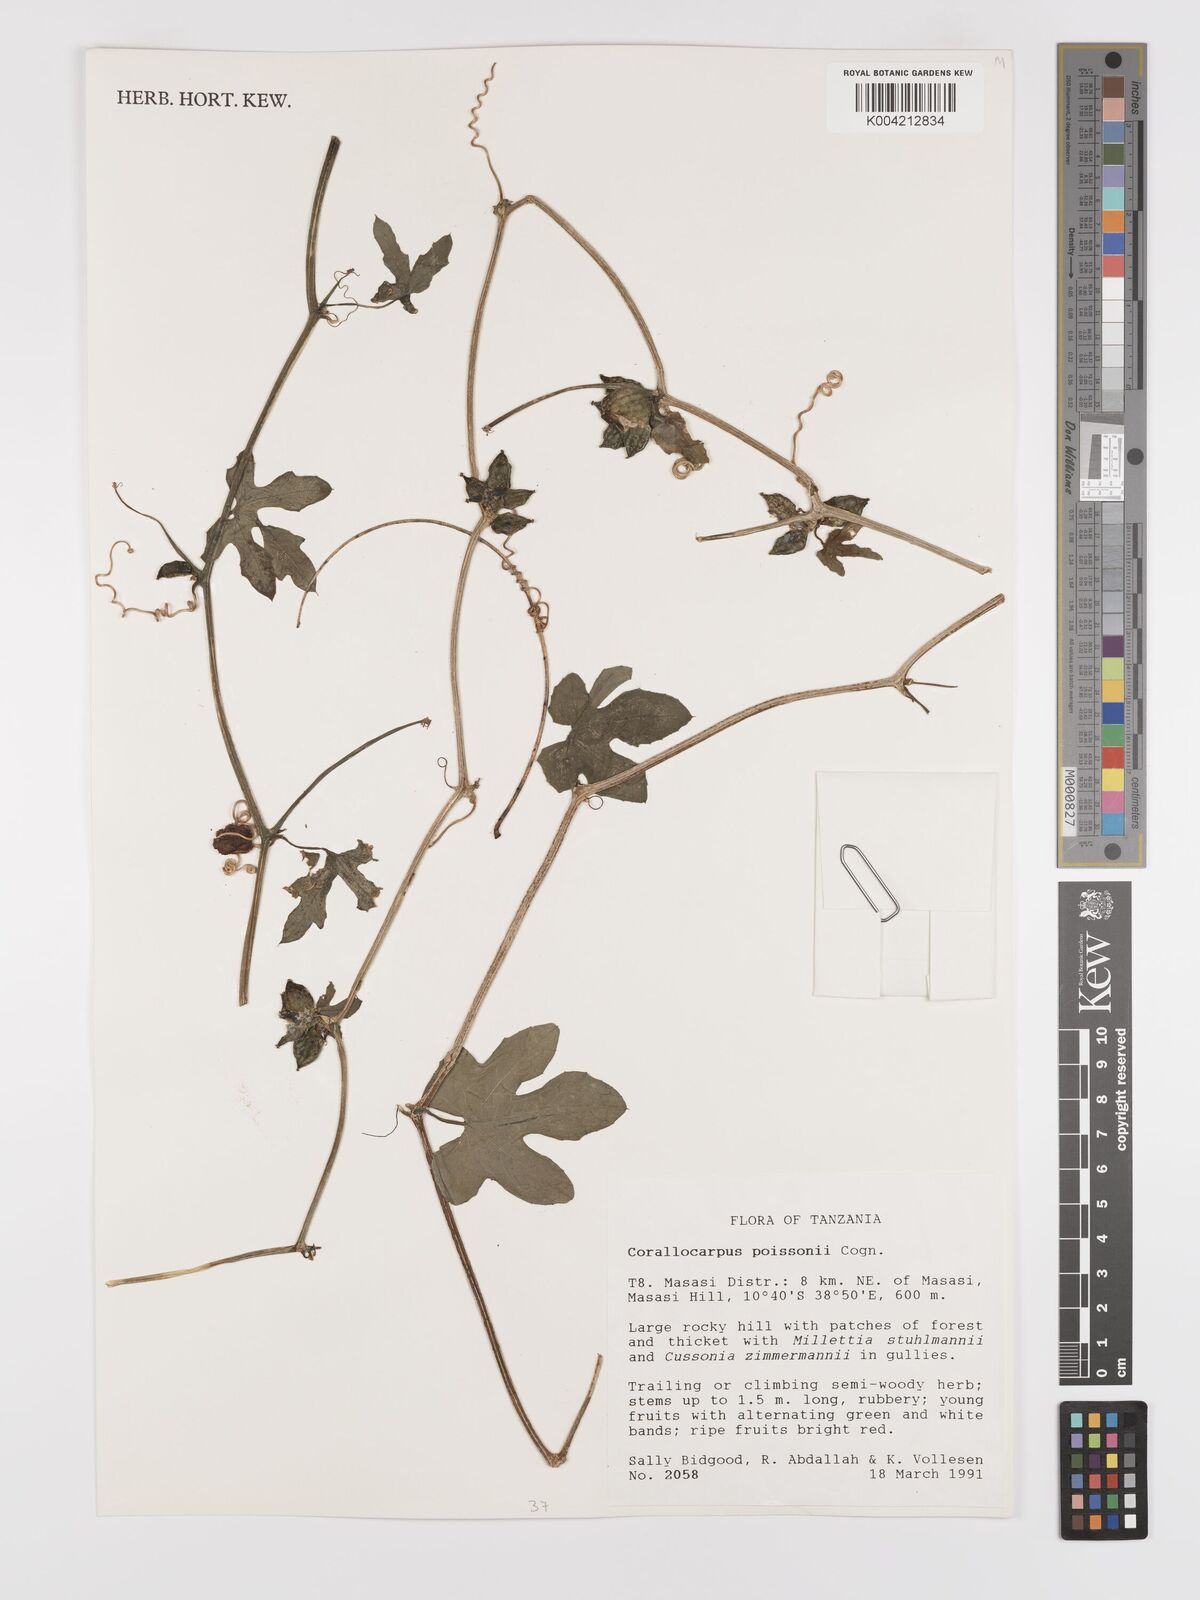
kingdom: Plantae
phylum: Tracheophyta
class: Magnoliopsida
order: Cucurbitales
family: Cucurbitaceae
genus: Corallocarpus
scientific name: Corallocarpus bainesii
